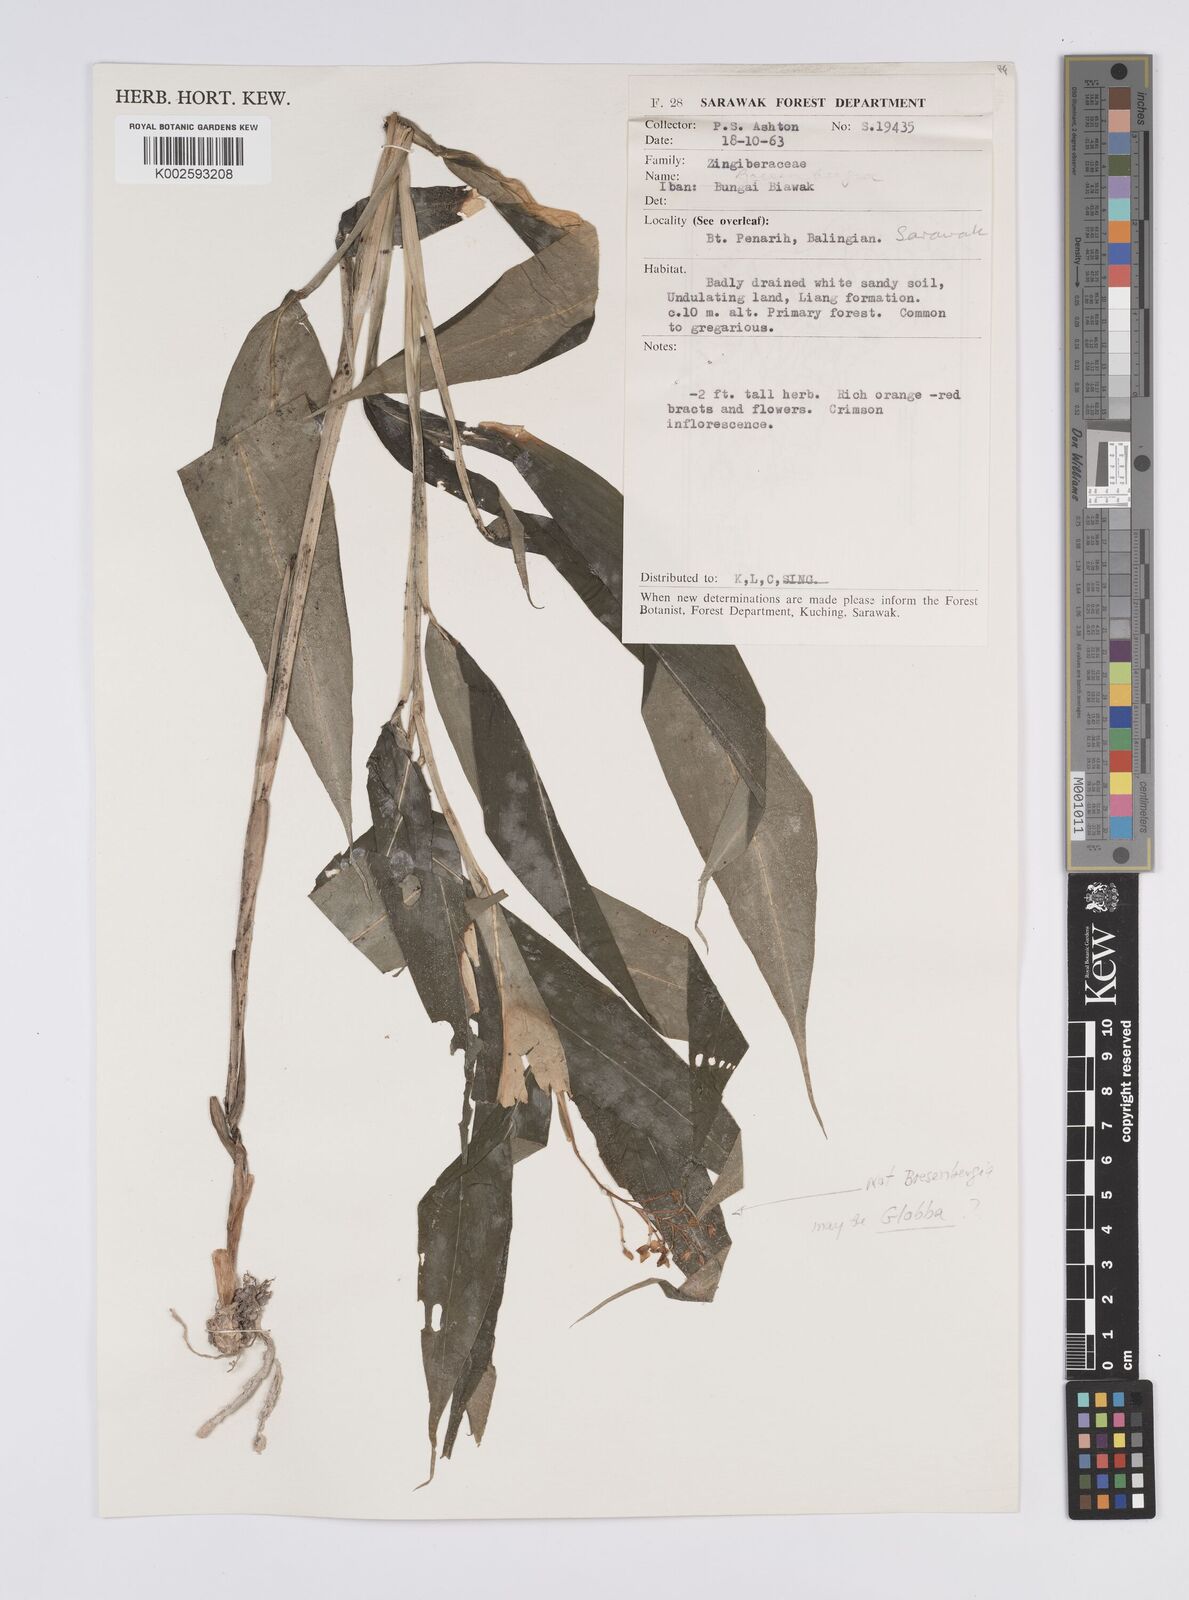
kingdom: Plantae
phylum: Tracheophyta
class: Liliopsida
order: Zingiberales
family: Zingiberaceae
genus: Globba
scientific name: Globba
